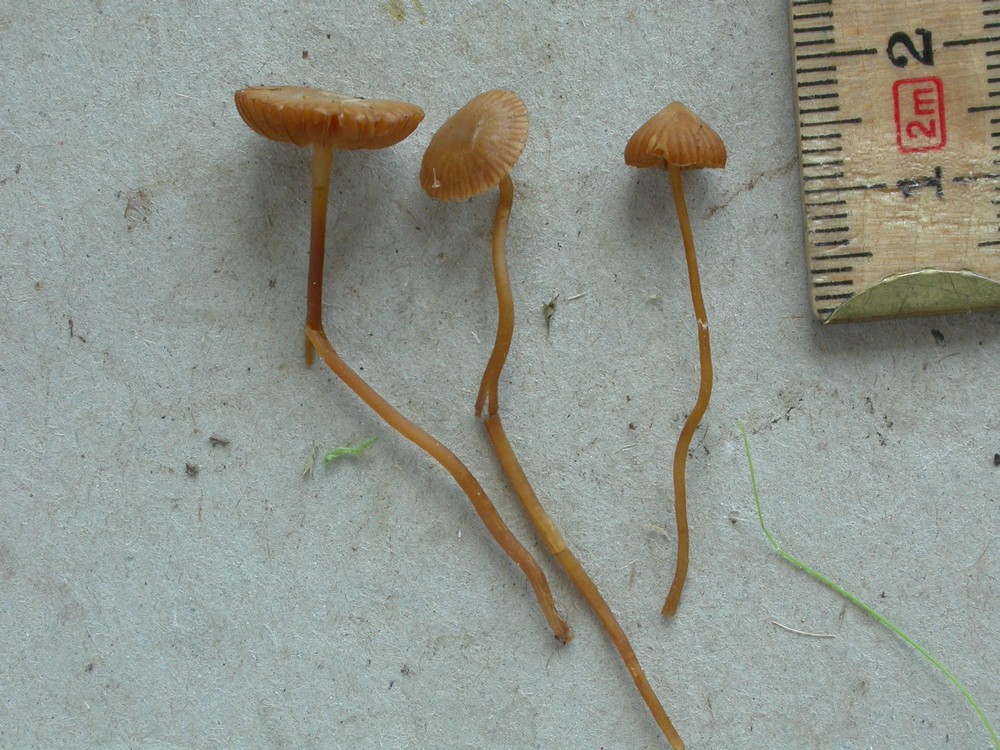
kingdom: Fungi
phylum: Basidiomycota
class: Agaricomycetes
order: Agaricales
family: Hymenogastraceae
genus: Galerina
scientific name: Galerina vittiformis
